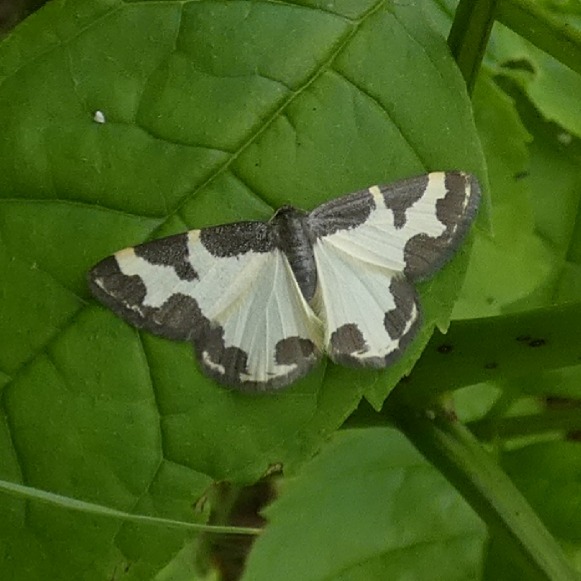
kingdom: Animalia
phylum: Arthropoda
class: Insecta
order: Lepidoptera
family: Geometridae
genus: Lomaspilis
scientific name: Lomaspilis marginata
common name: Sortrandet måler
